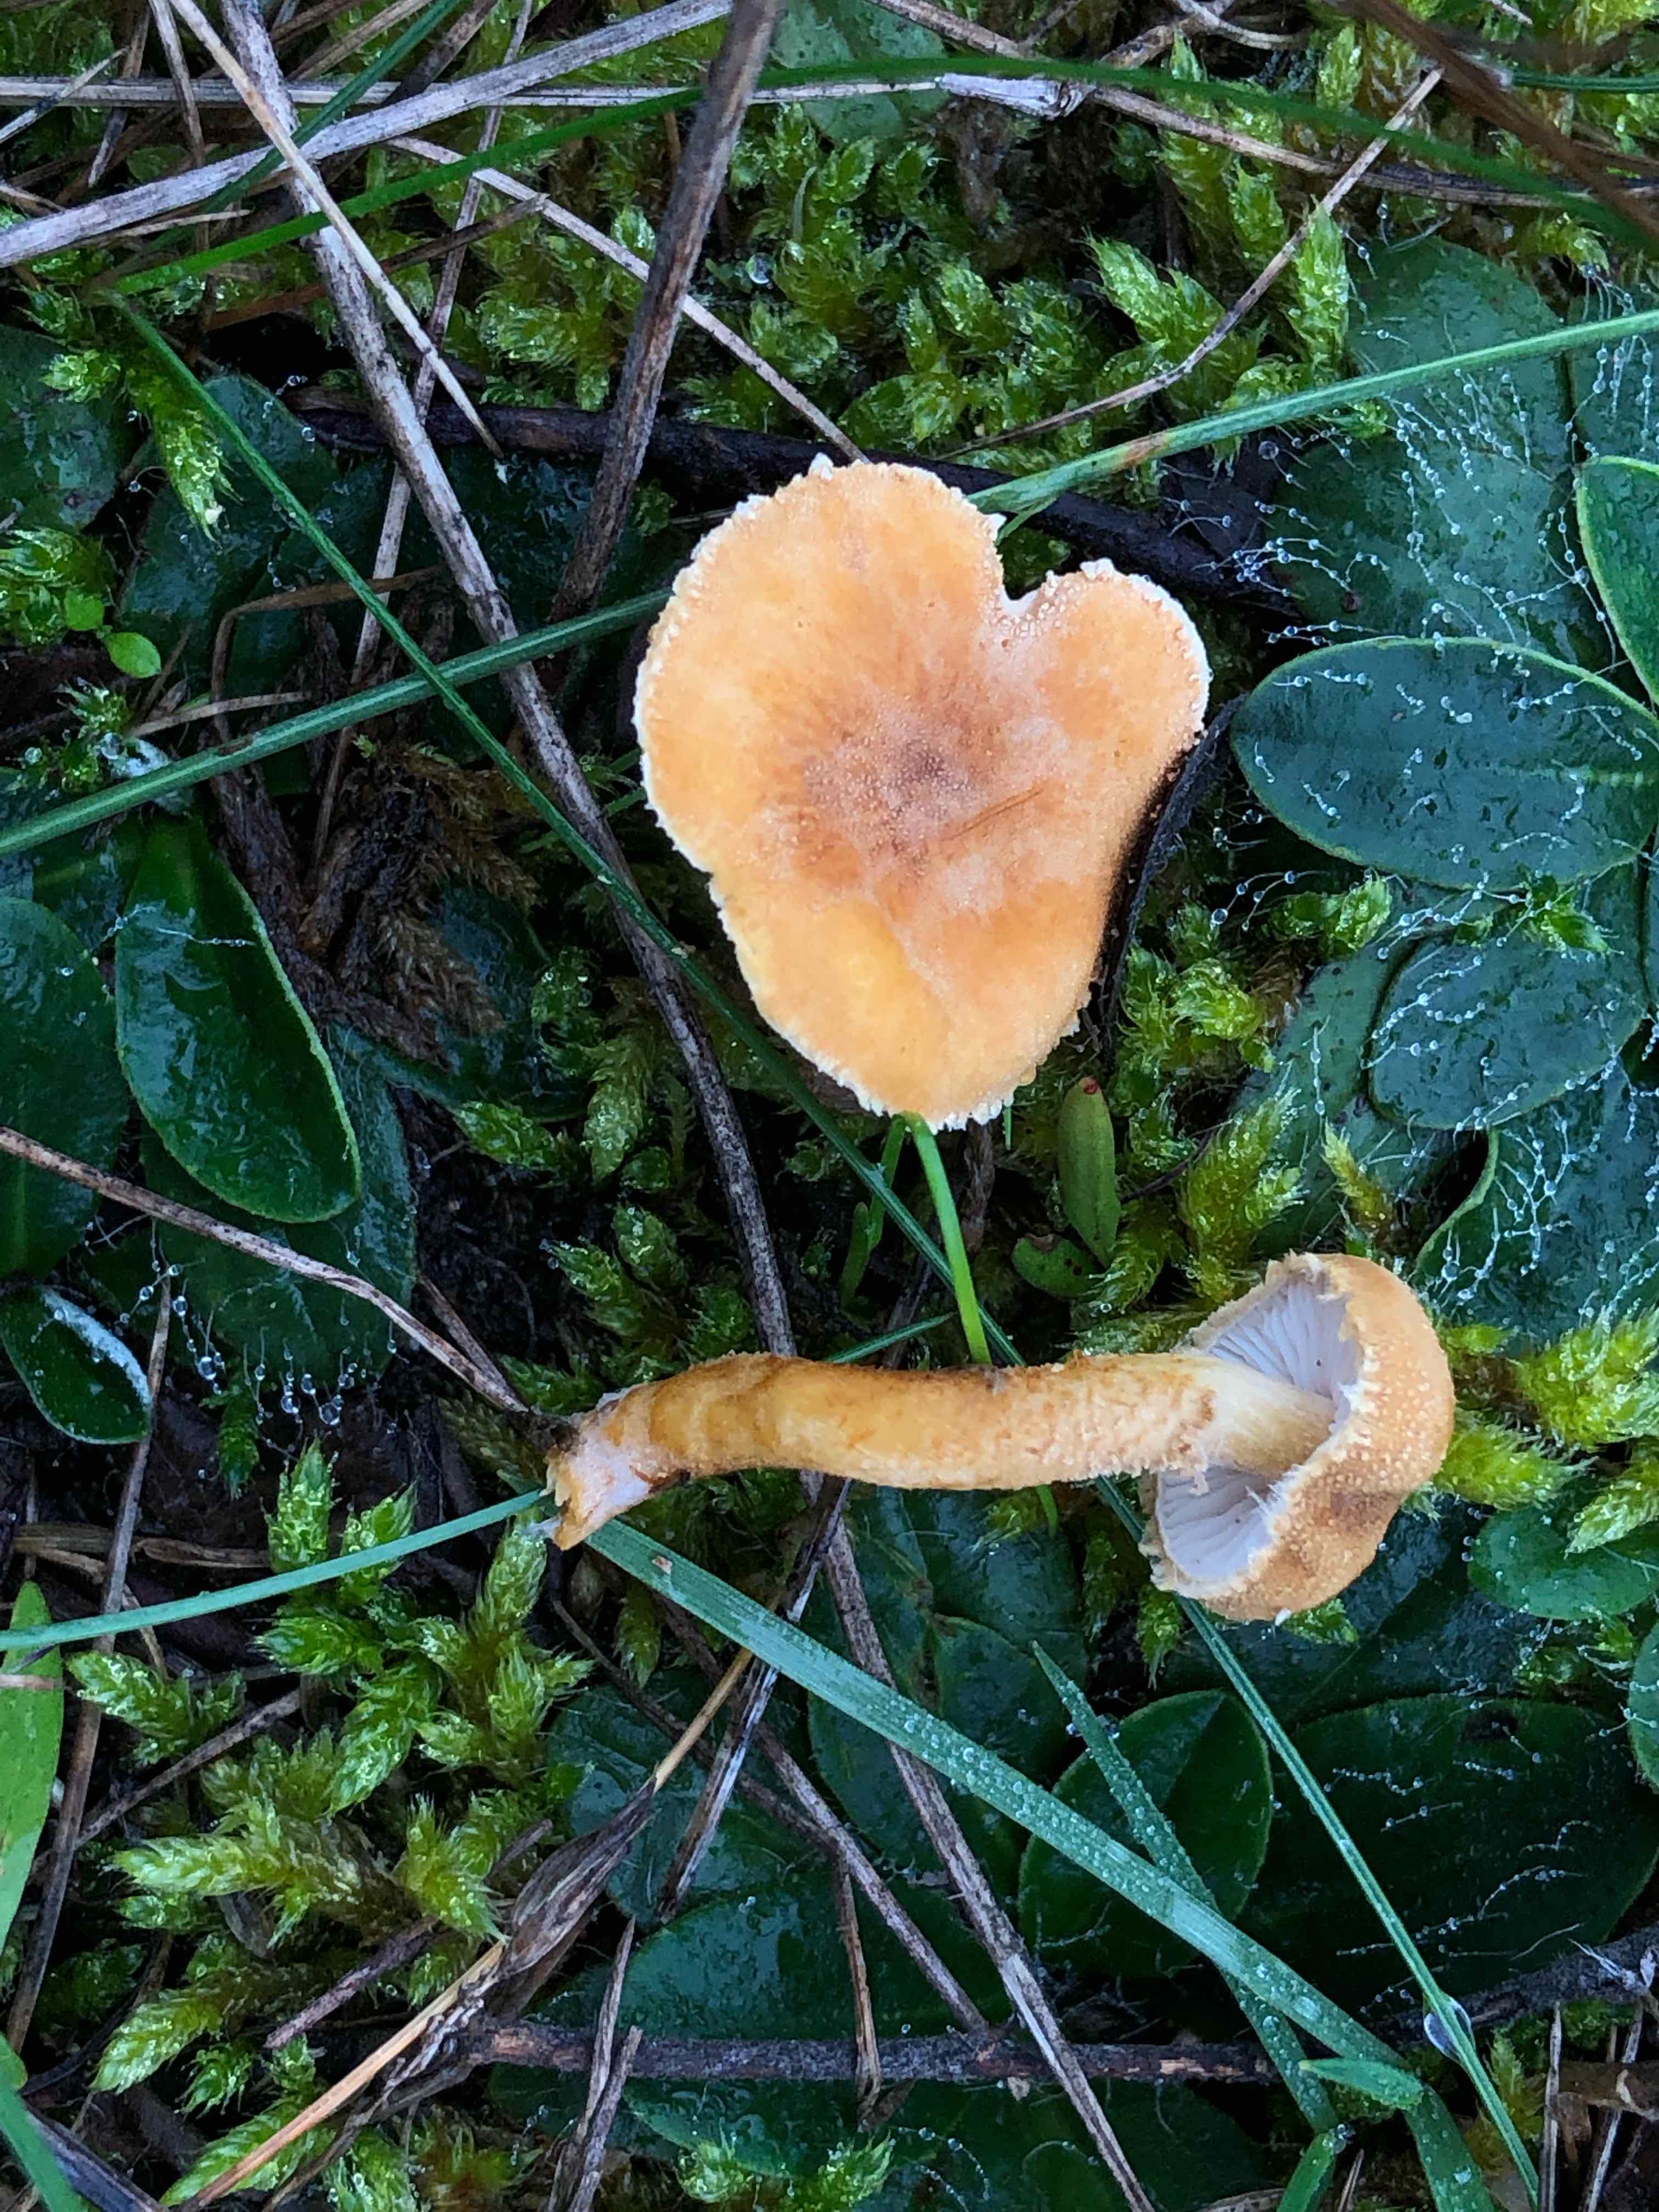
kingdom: Fungi
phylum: Basidiomycota
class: Agaricomycetes
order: Agaricales
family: Tricholomataceae
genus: Cystoderma
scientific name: Cystoderma amianthinum
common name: okkergul grynhat
